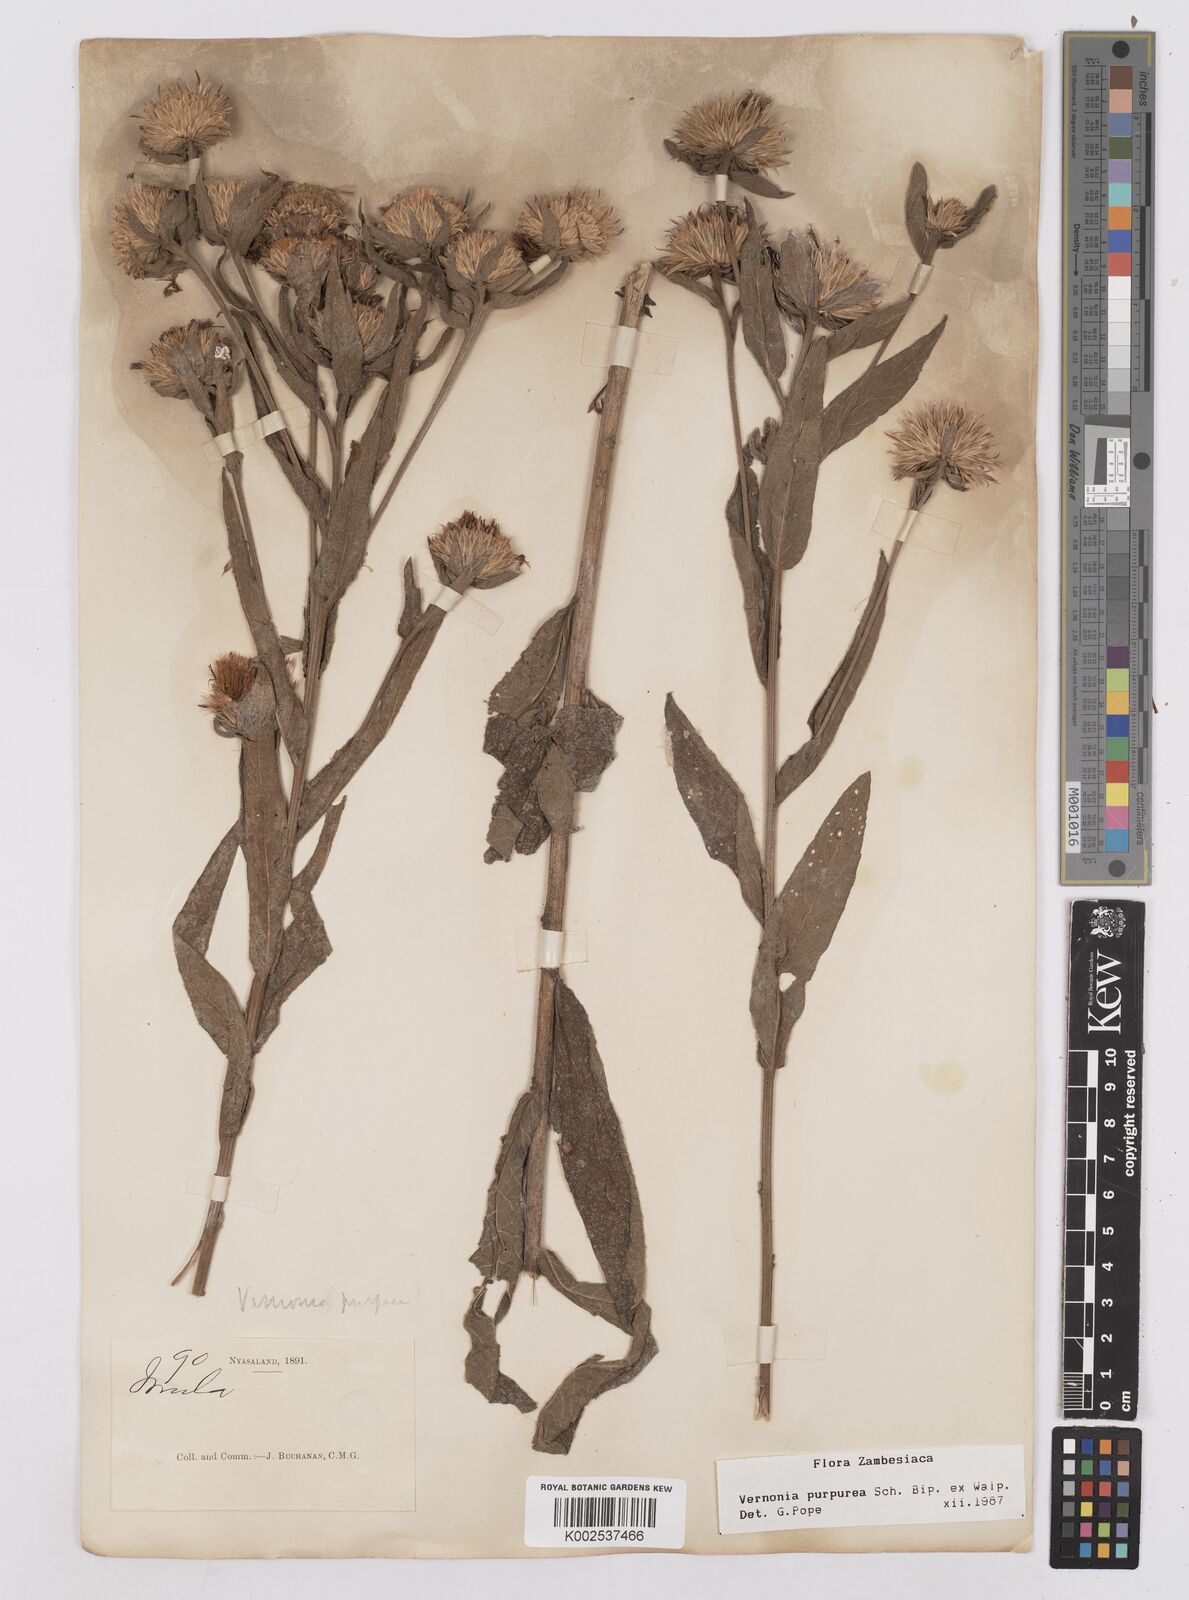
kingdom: Plantae
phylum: Tracheophyta
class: Magnoliopsida
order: Asterales
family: Asteraceae
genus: Nothovernonia
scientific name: Nothovernonia purpurea
